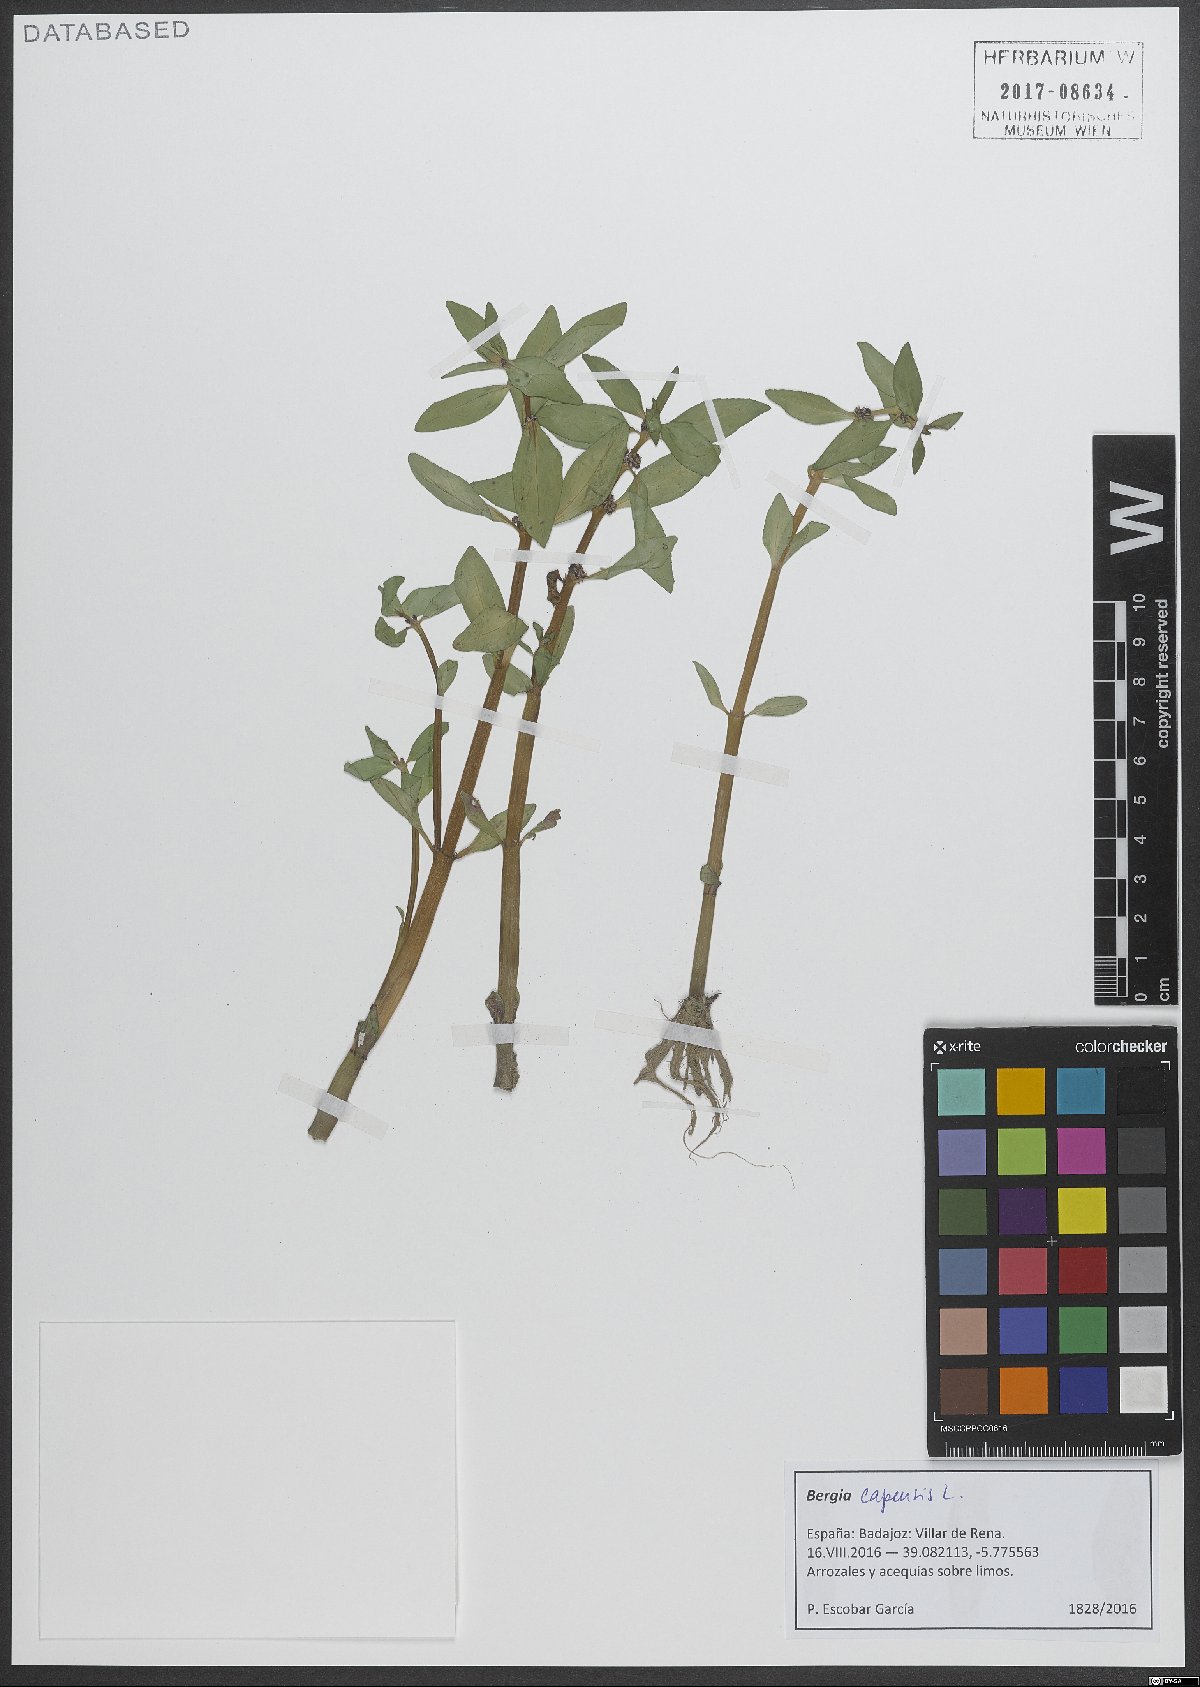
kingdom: Plantae
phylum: Tracheophyta
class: Magnoliopsida
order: Malpighiales
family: Elatinaceae
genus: Bergia
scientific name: Bergia capensis
